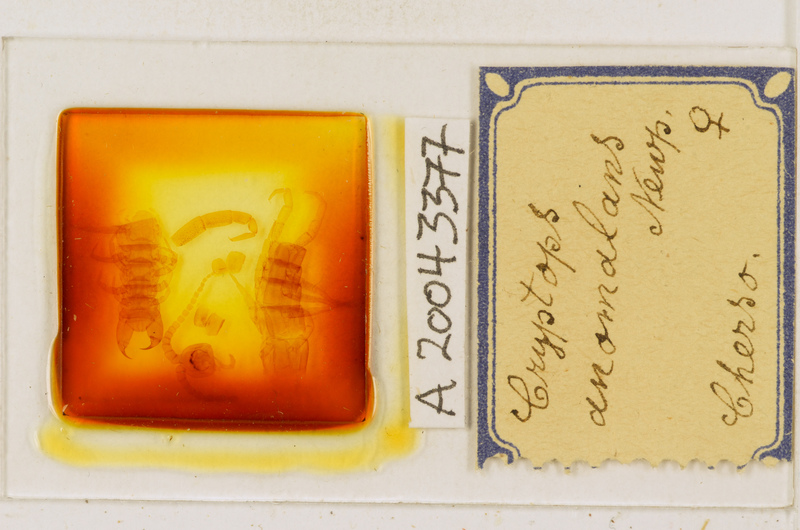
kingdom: Animalia
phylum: Arthropoda
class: Chilopoda
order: Scolopendromorpha
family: Cryptopidae
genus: Cryptops
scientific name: Cryptops anomalans
